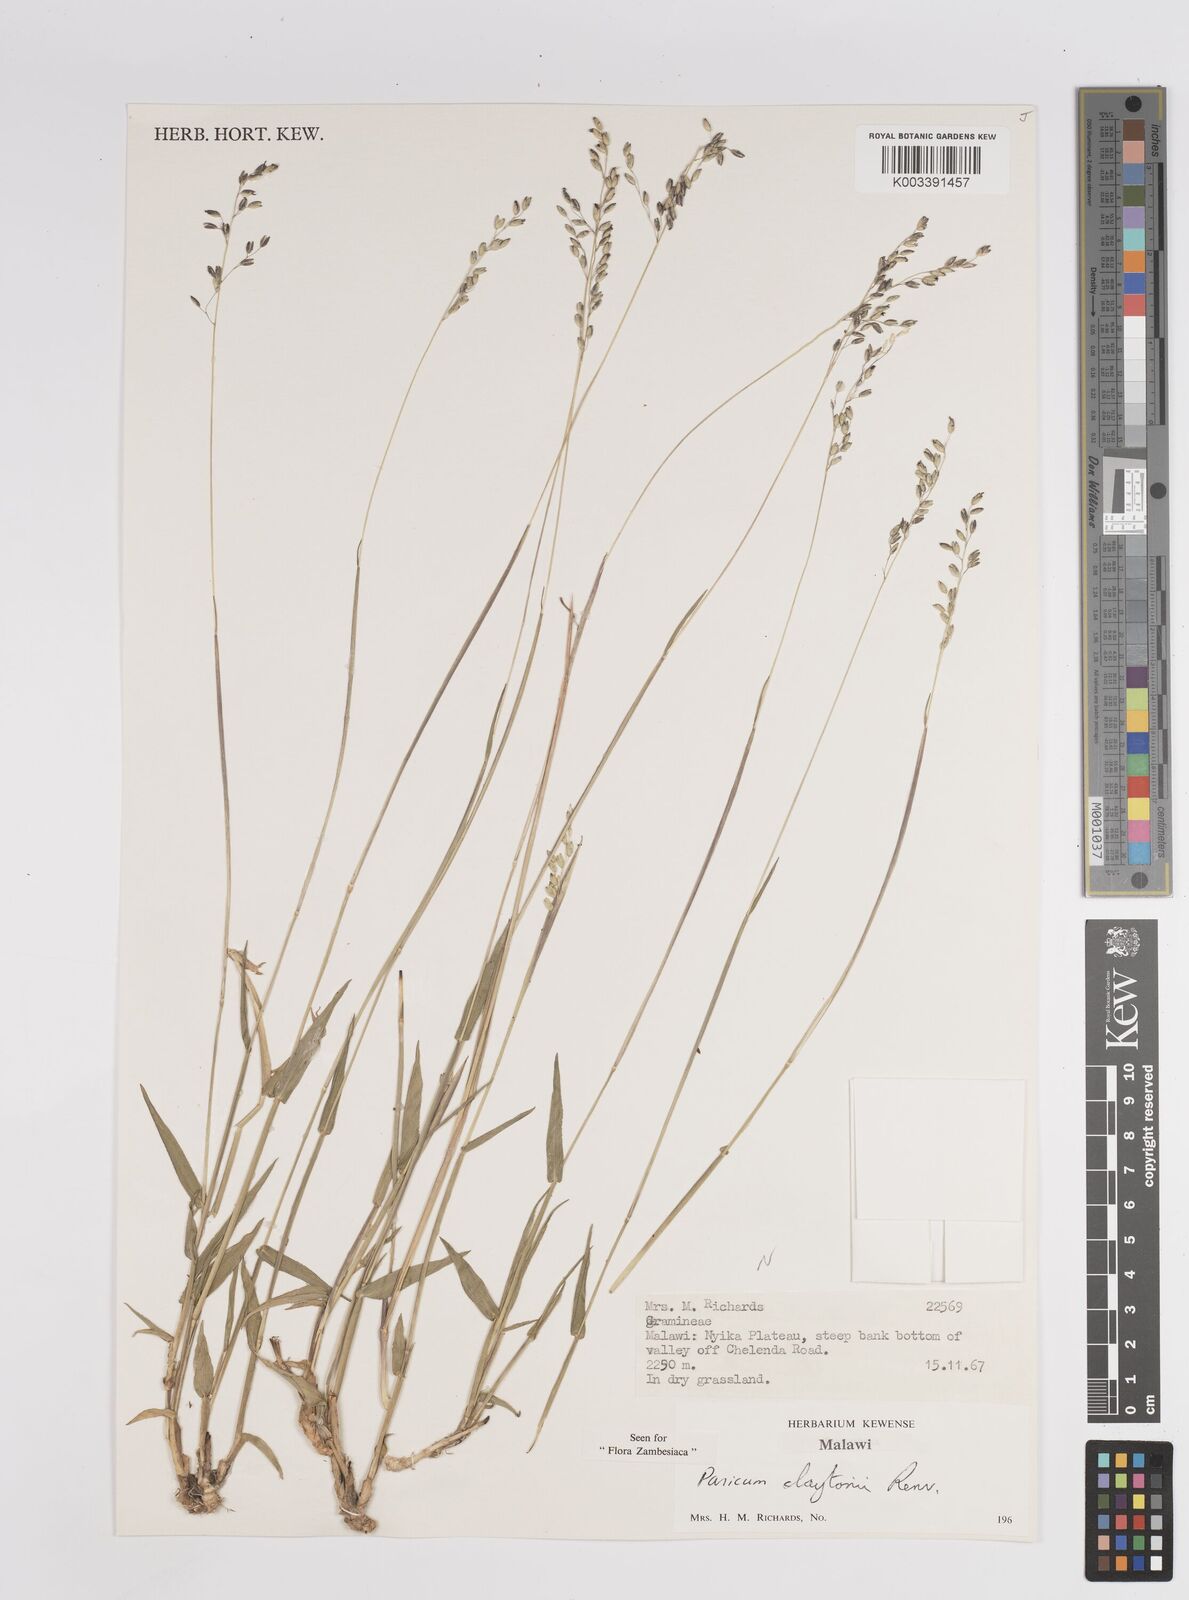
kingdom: Plantae
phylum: Tracheophyta
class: Liliopsida
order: Poales
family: Poaceae
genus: Adenochloa
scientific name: Adenochloa claytonii
